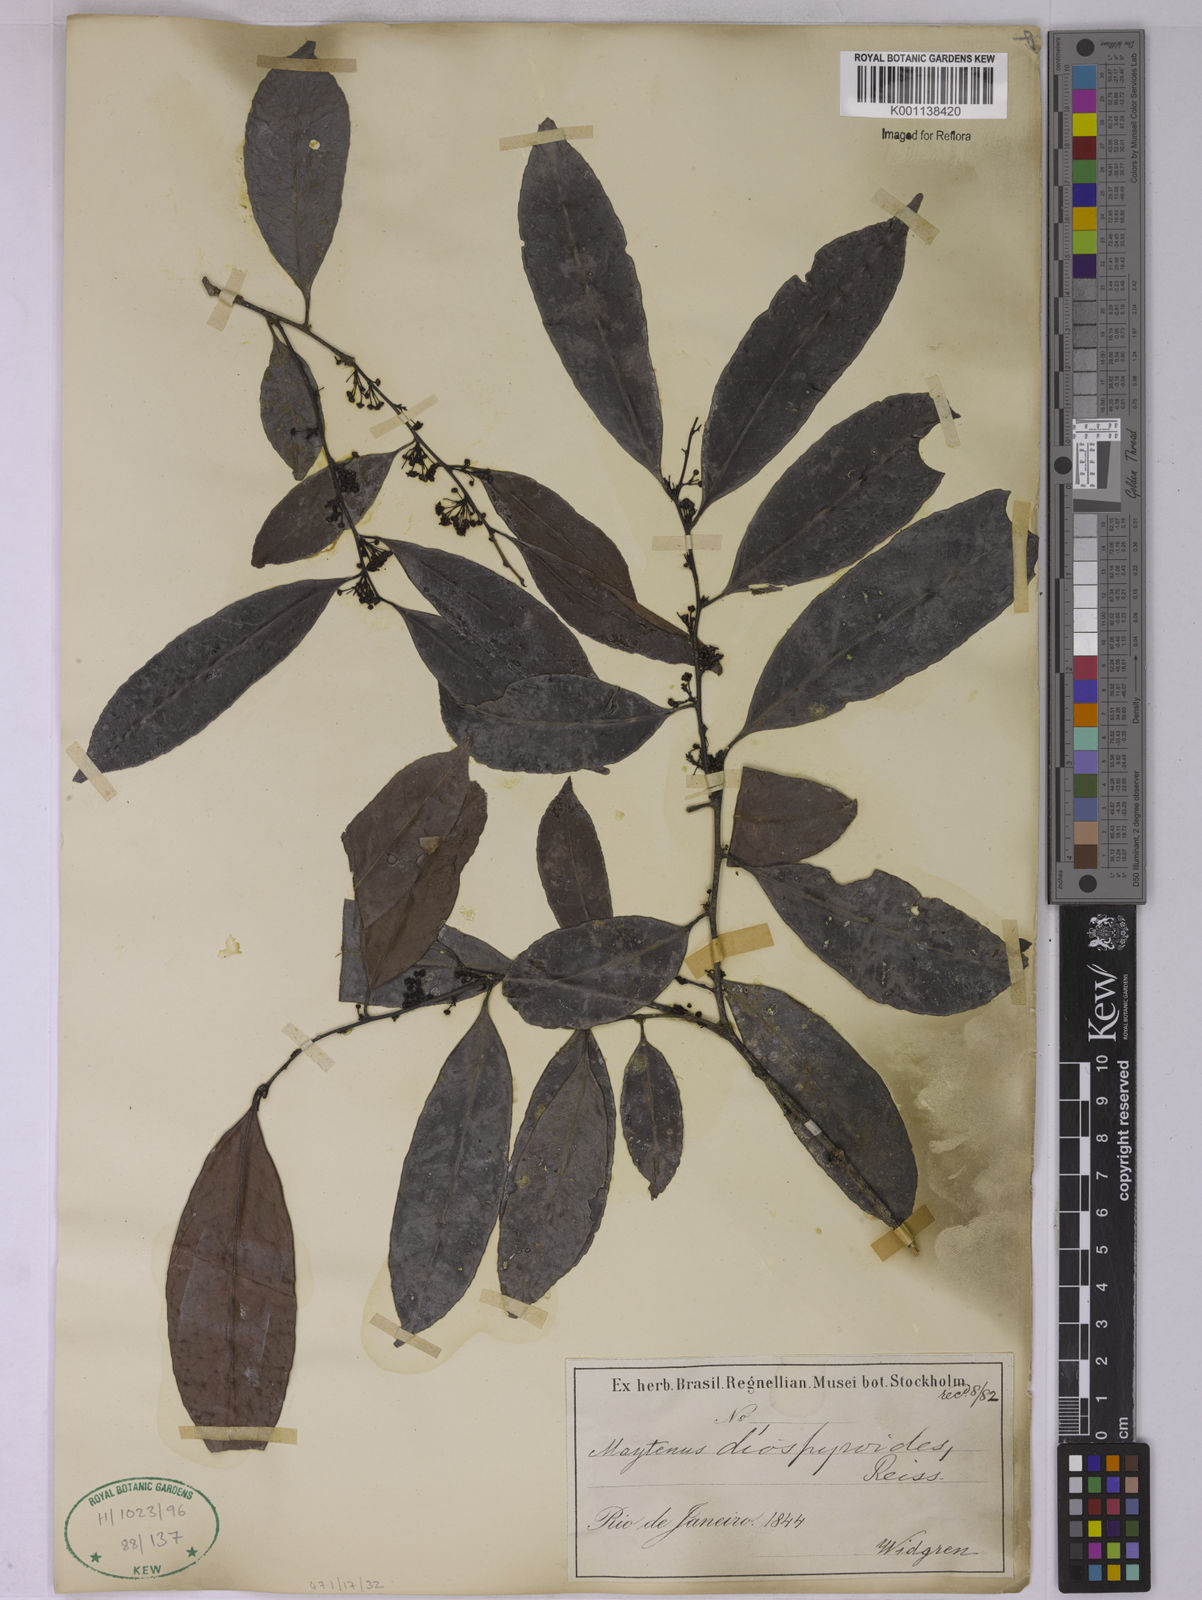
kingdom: Plantae
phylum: Tracheophyta
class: Magnoliopsida
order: Celastrales
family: Celastraceae
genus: Monteverdia
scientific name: Monteverdia distichophylla
